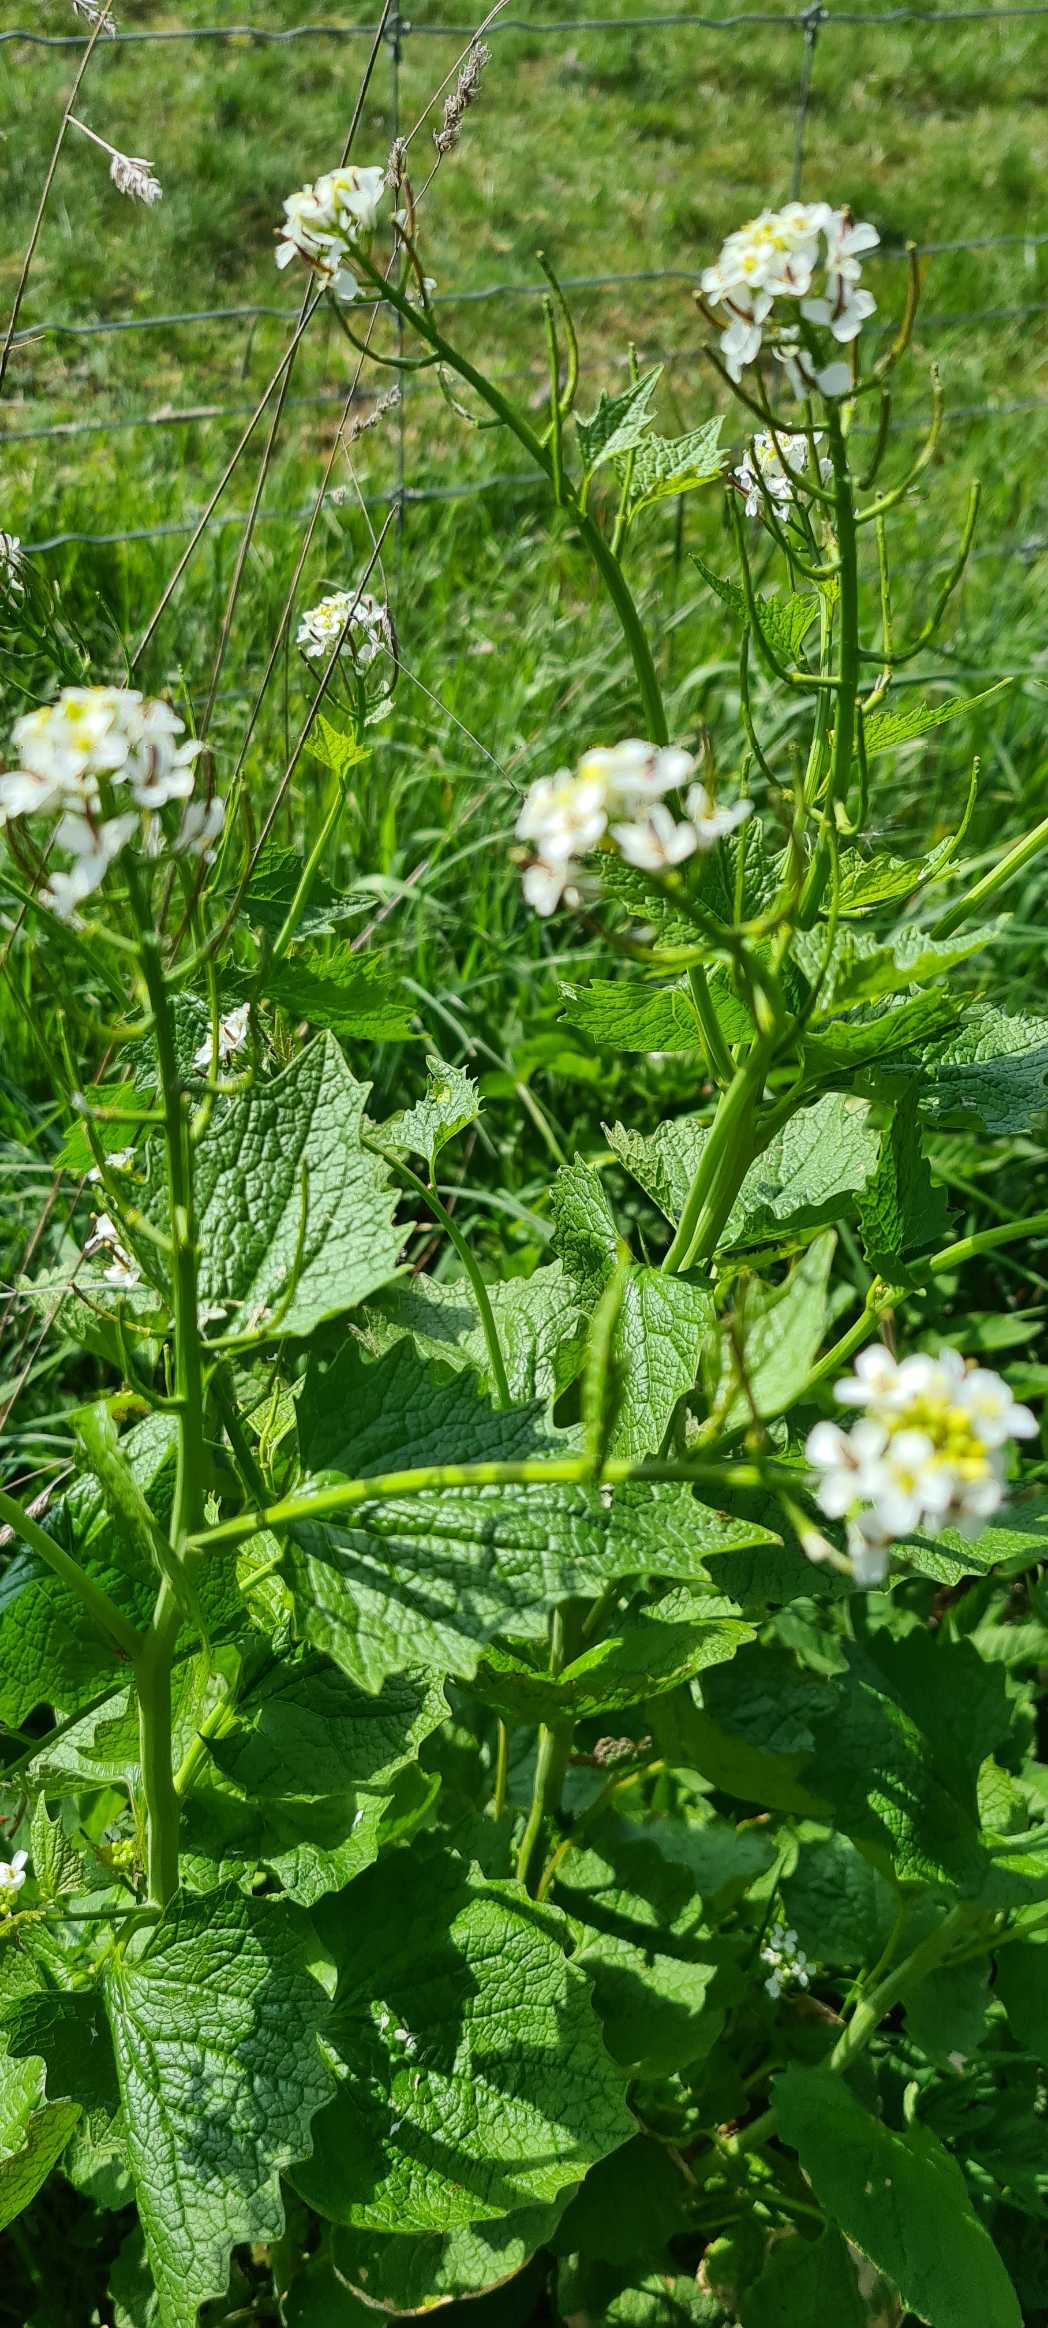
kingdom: Plantae
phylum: Tracheophyta
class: Magnoliopsida
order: Brassicales
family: Brassicaceae
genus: Alliaria
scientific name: Alliaria petiolata
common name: Løgkarse
